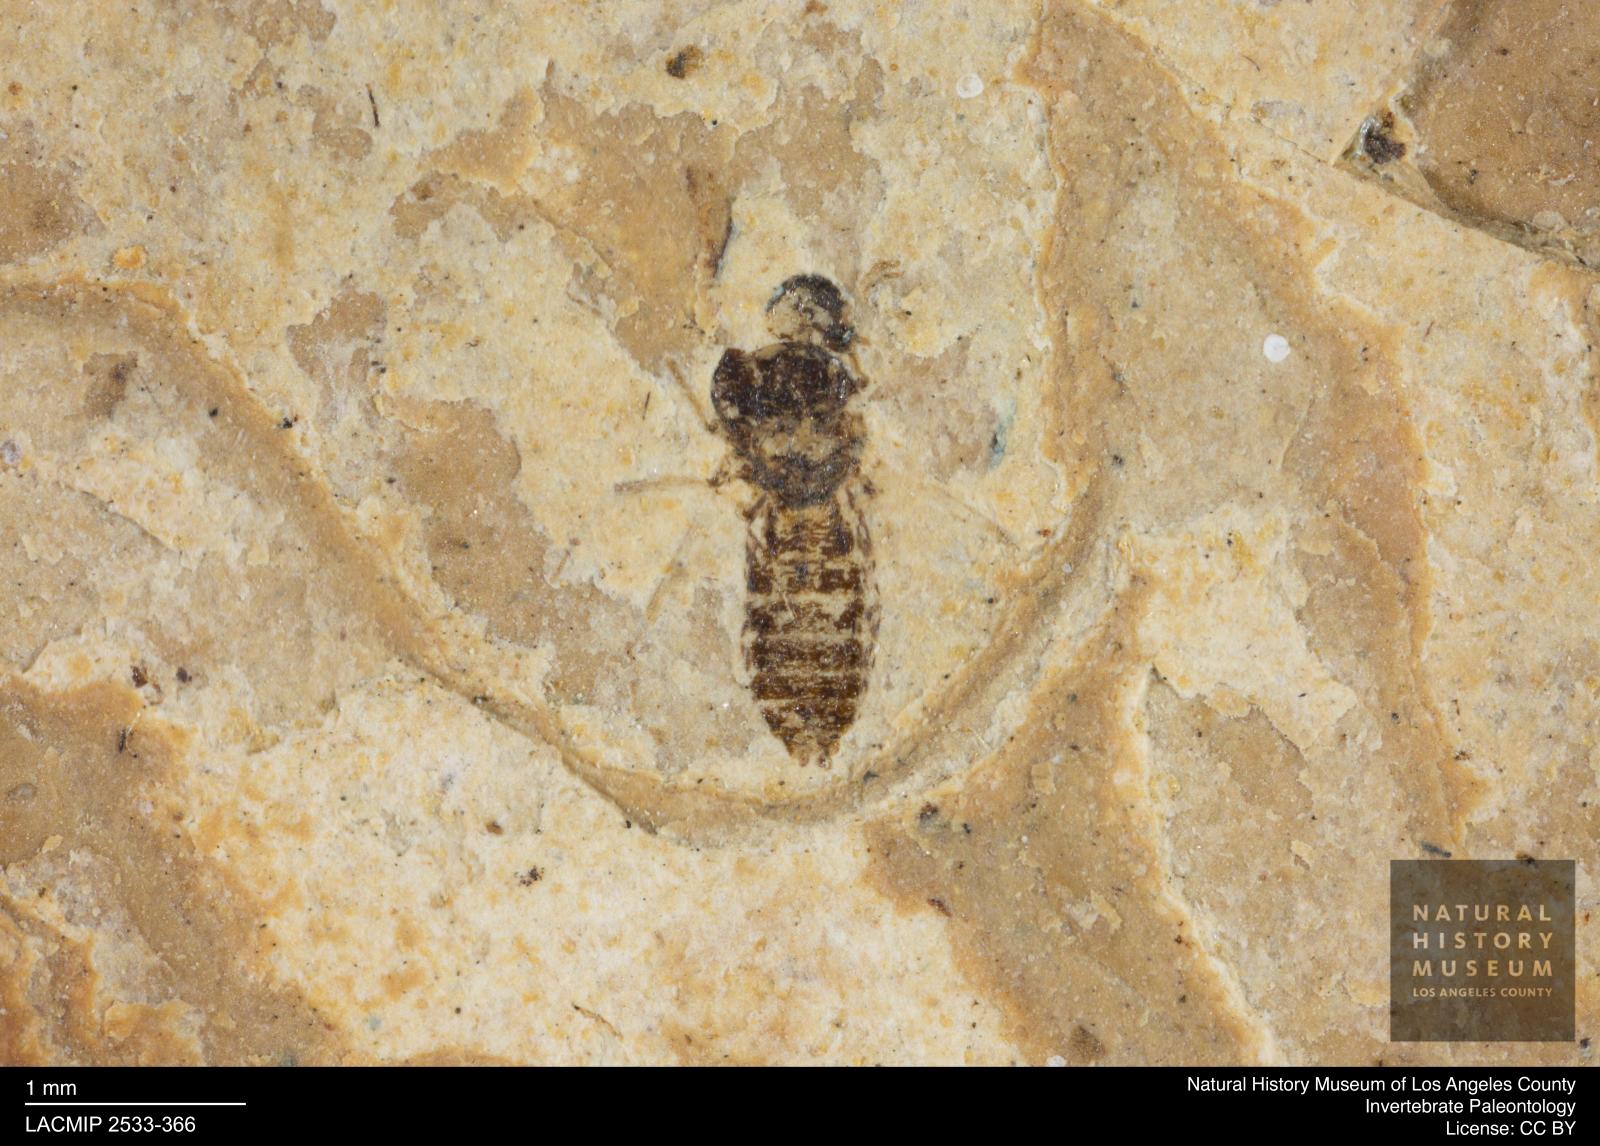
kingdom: Animalia
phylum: Arthropoda
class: Insecta
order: Diptera
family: Ceratopogonidae
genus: Culicoides
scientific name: Culicoides elongatulus
